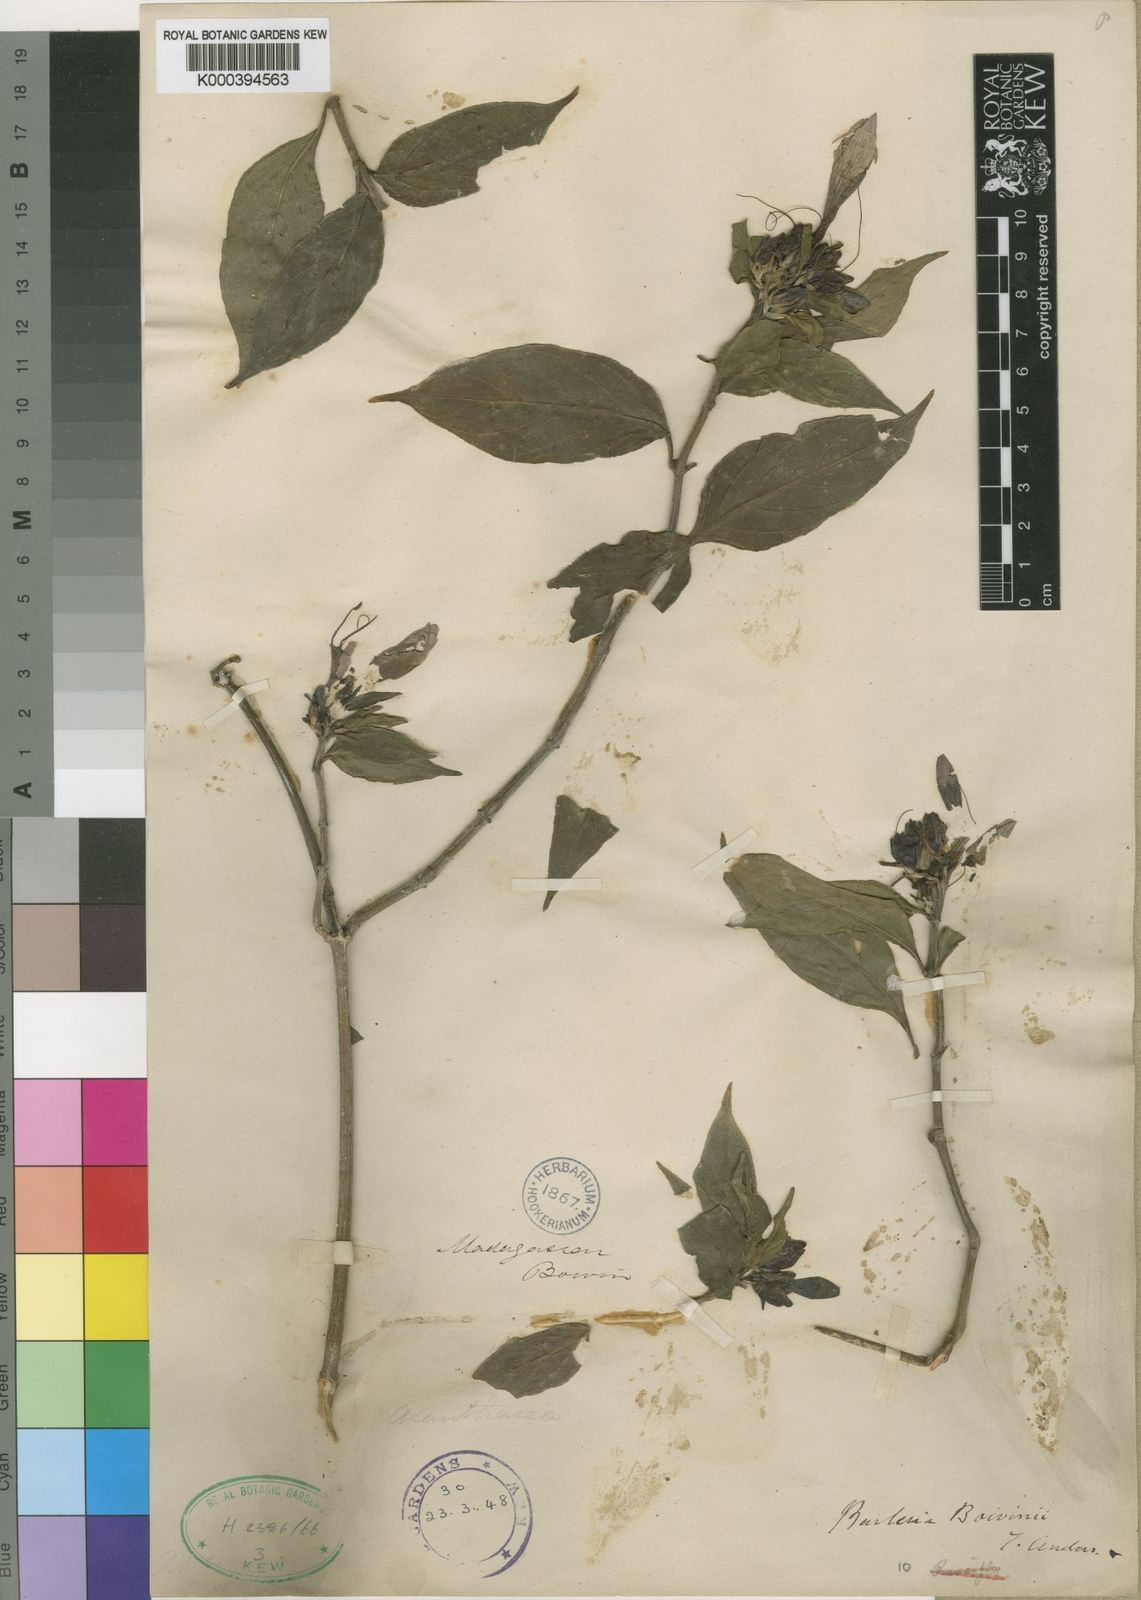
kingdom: Plantae
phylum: Tracheophyta
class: Magnoliopsida
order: Lamiales
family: Acanthaceae
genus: Barleria
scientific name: Barleria decaisneana
